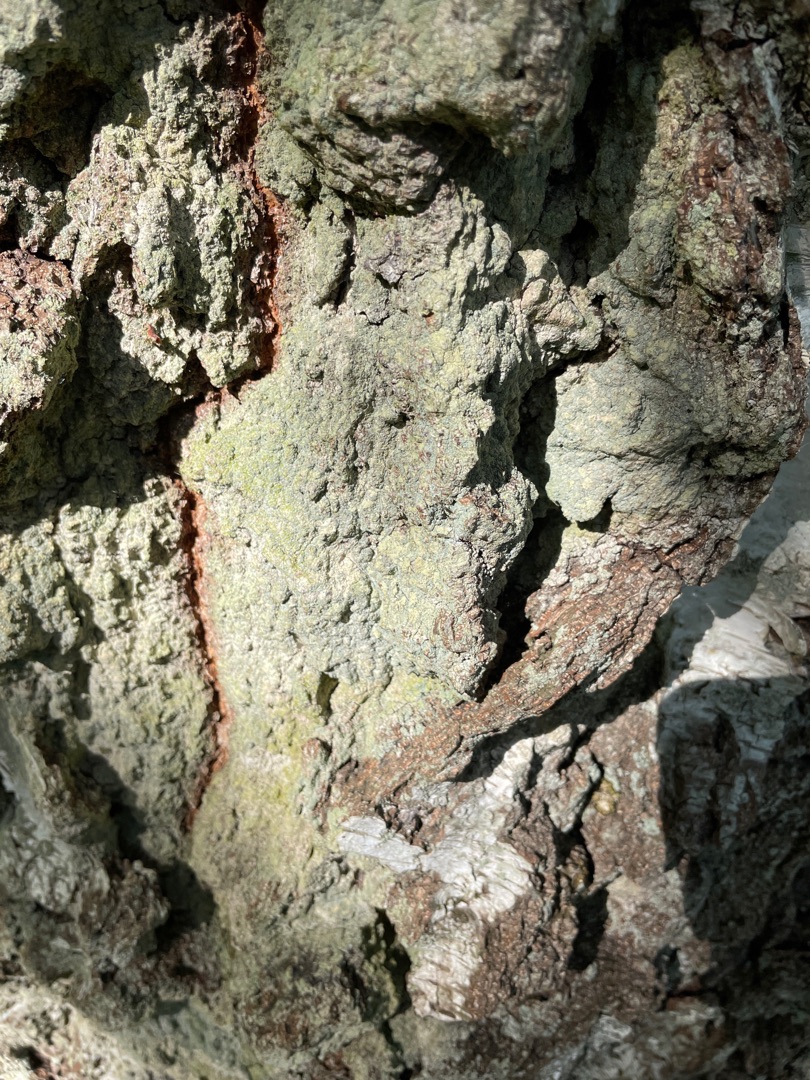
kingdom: Fungi
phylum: Ascomycota
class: Lecanoromycetes
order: Lecanorales
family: Stereocaulaceae
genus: Lepraria
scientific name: Lepraria
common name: Støvlav
